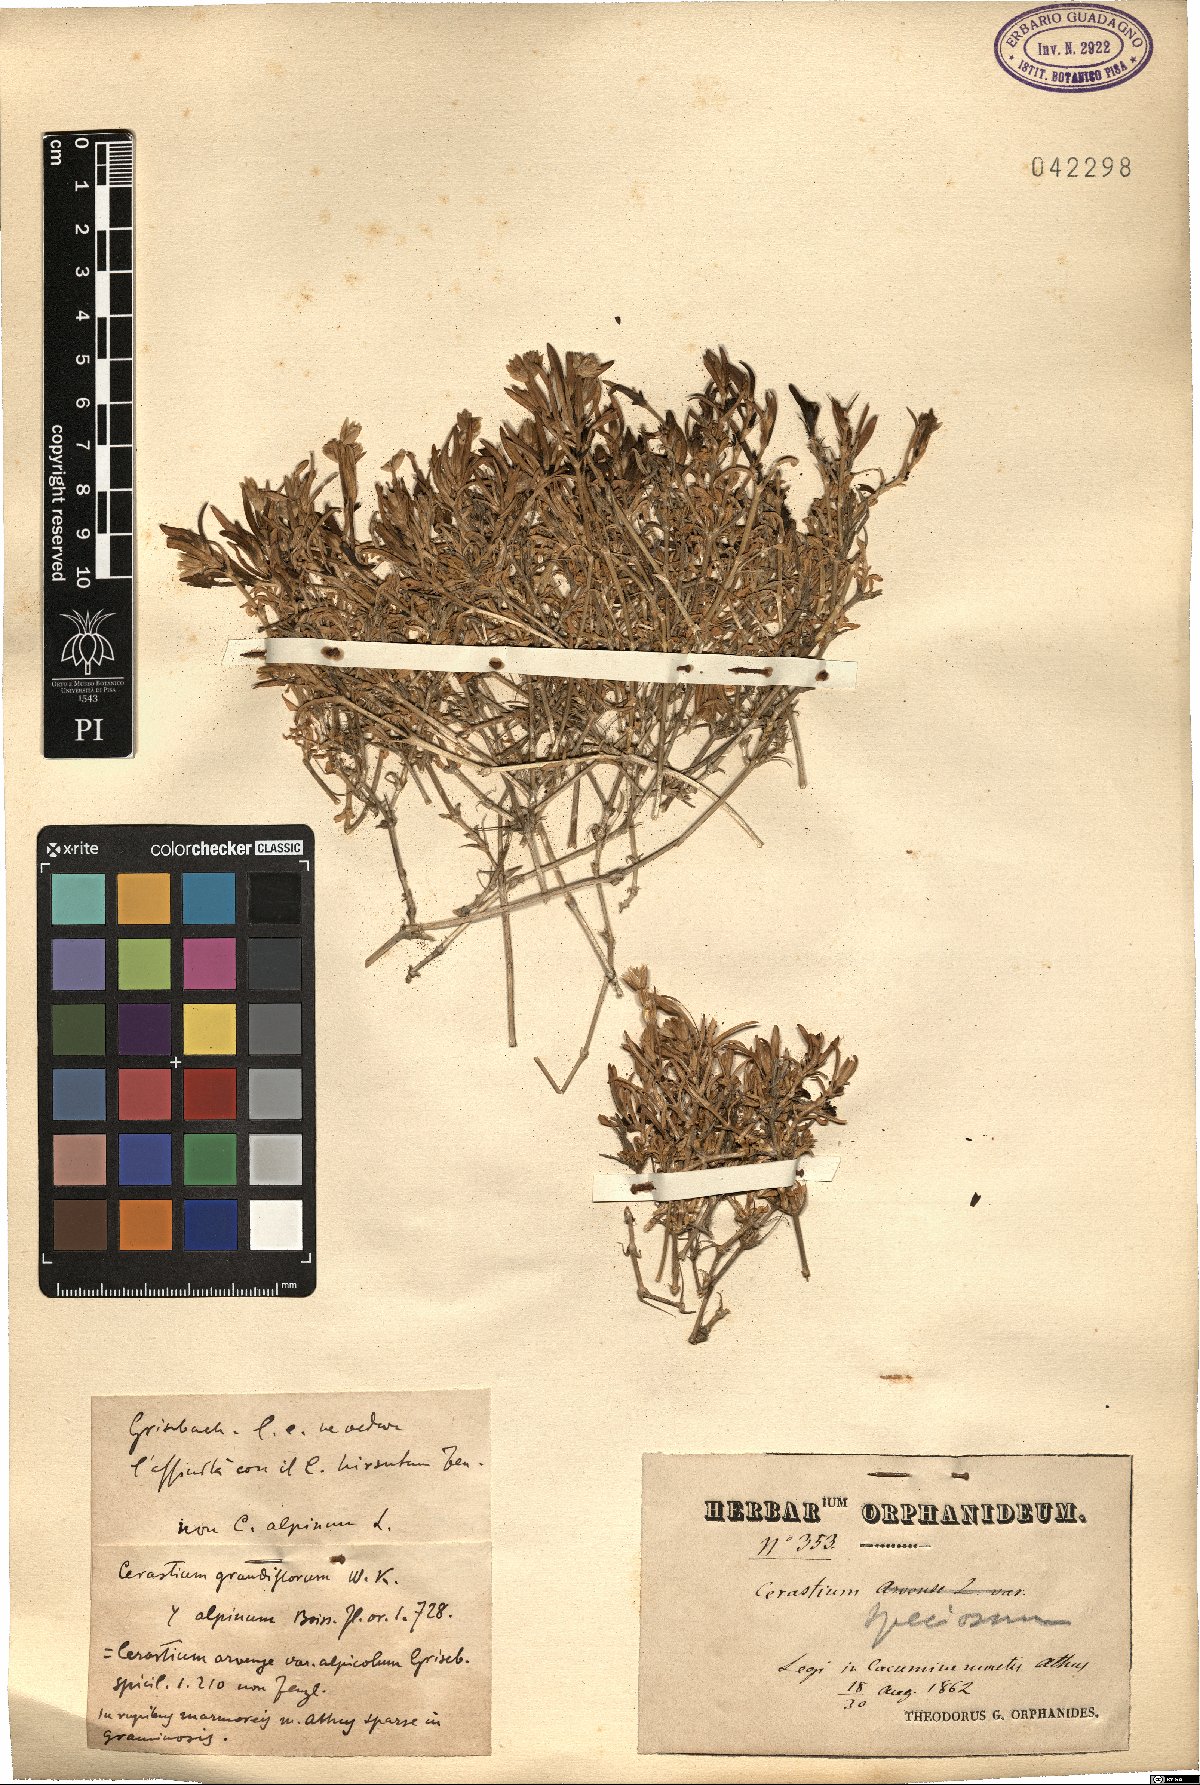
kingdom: Plantae
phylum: Tracheophyta
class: Magnoliopsida
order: Caryophyllales
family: Caryophyllaceae
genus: Cerastium
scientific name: Cerastium banaticum
